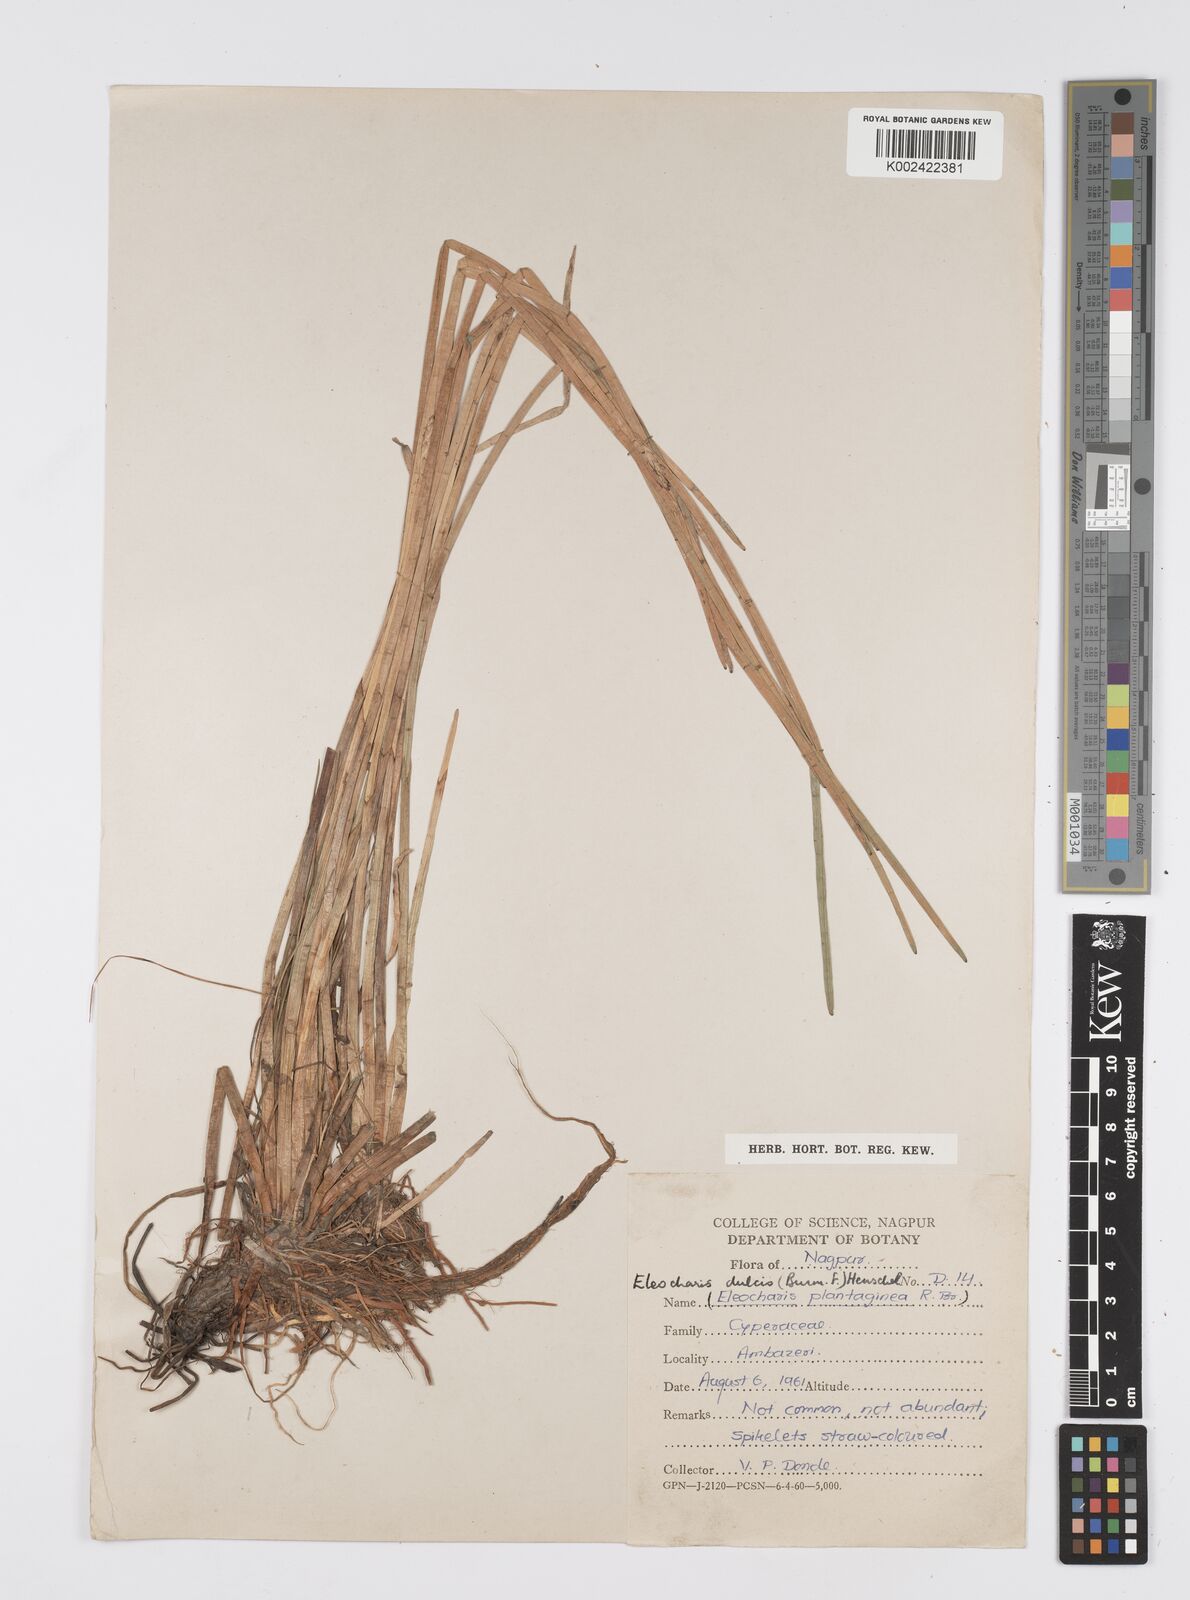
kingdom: Plantae
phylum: Tracheophyta
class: Liliopsida
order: Poales
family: Cyperaceae
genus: Eleocharis
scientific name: Eleocharis dulcis
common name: Chinese water chestnut
